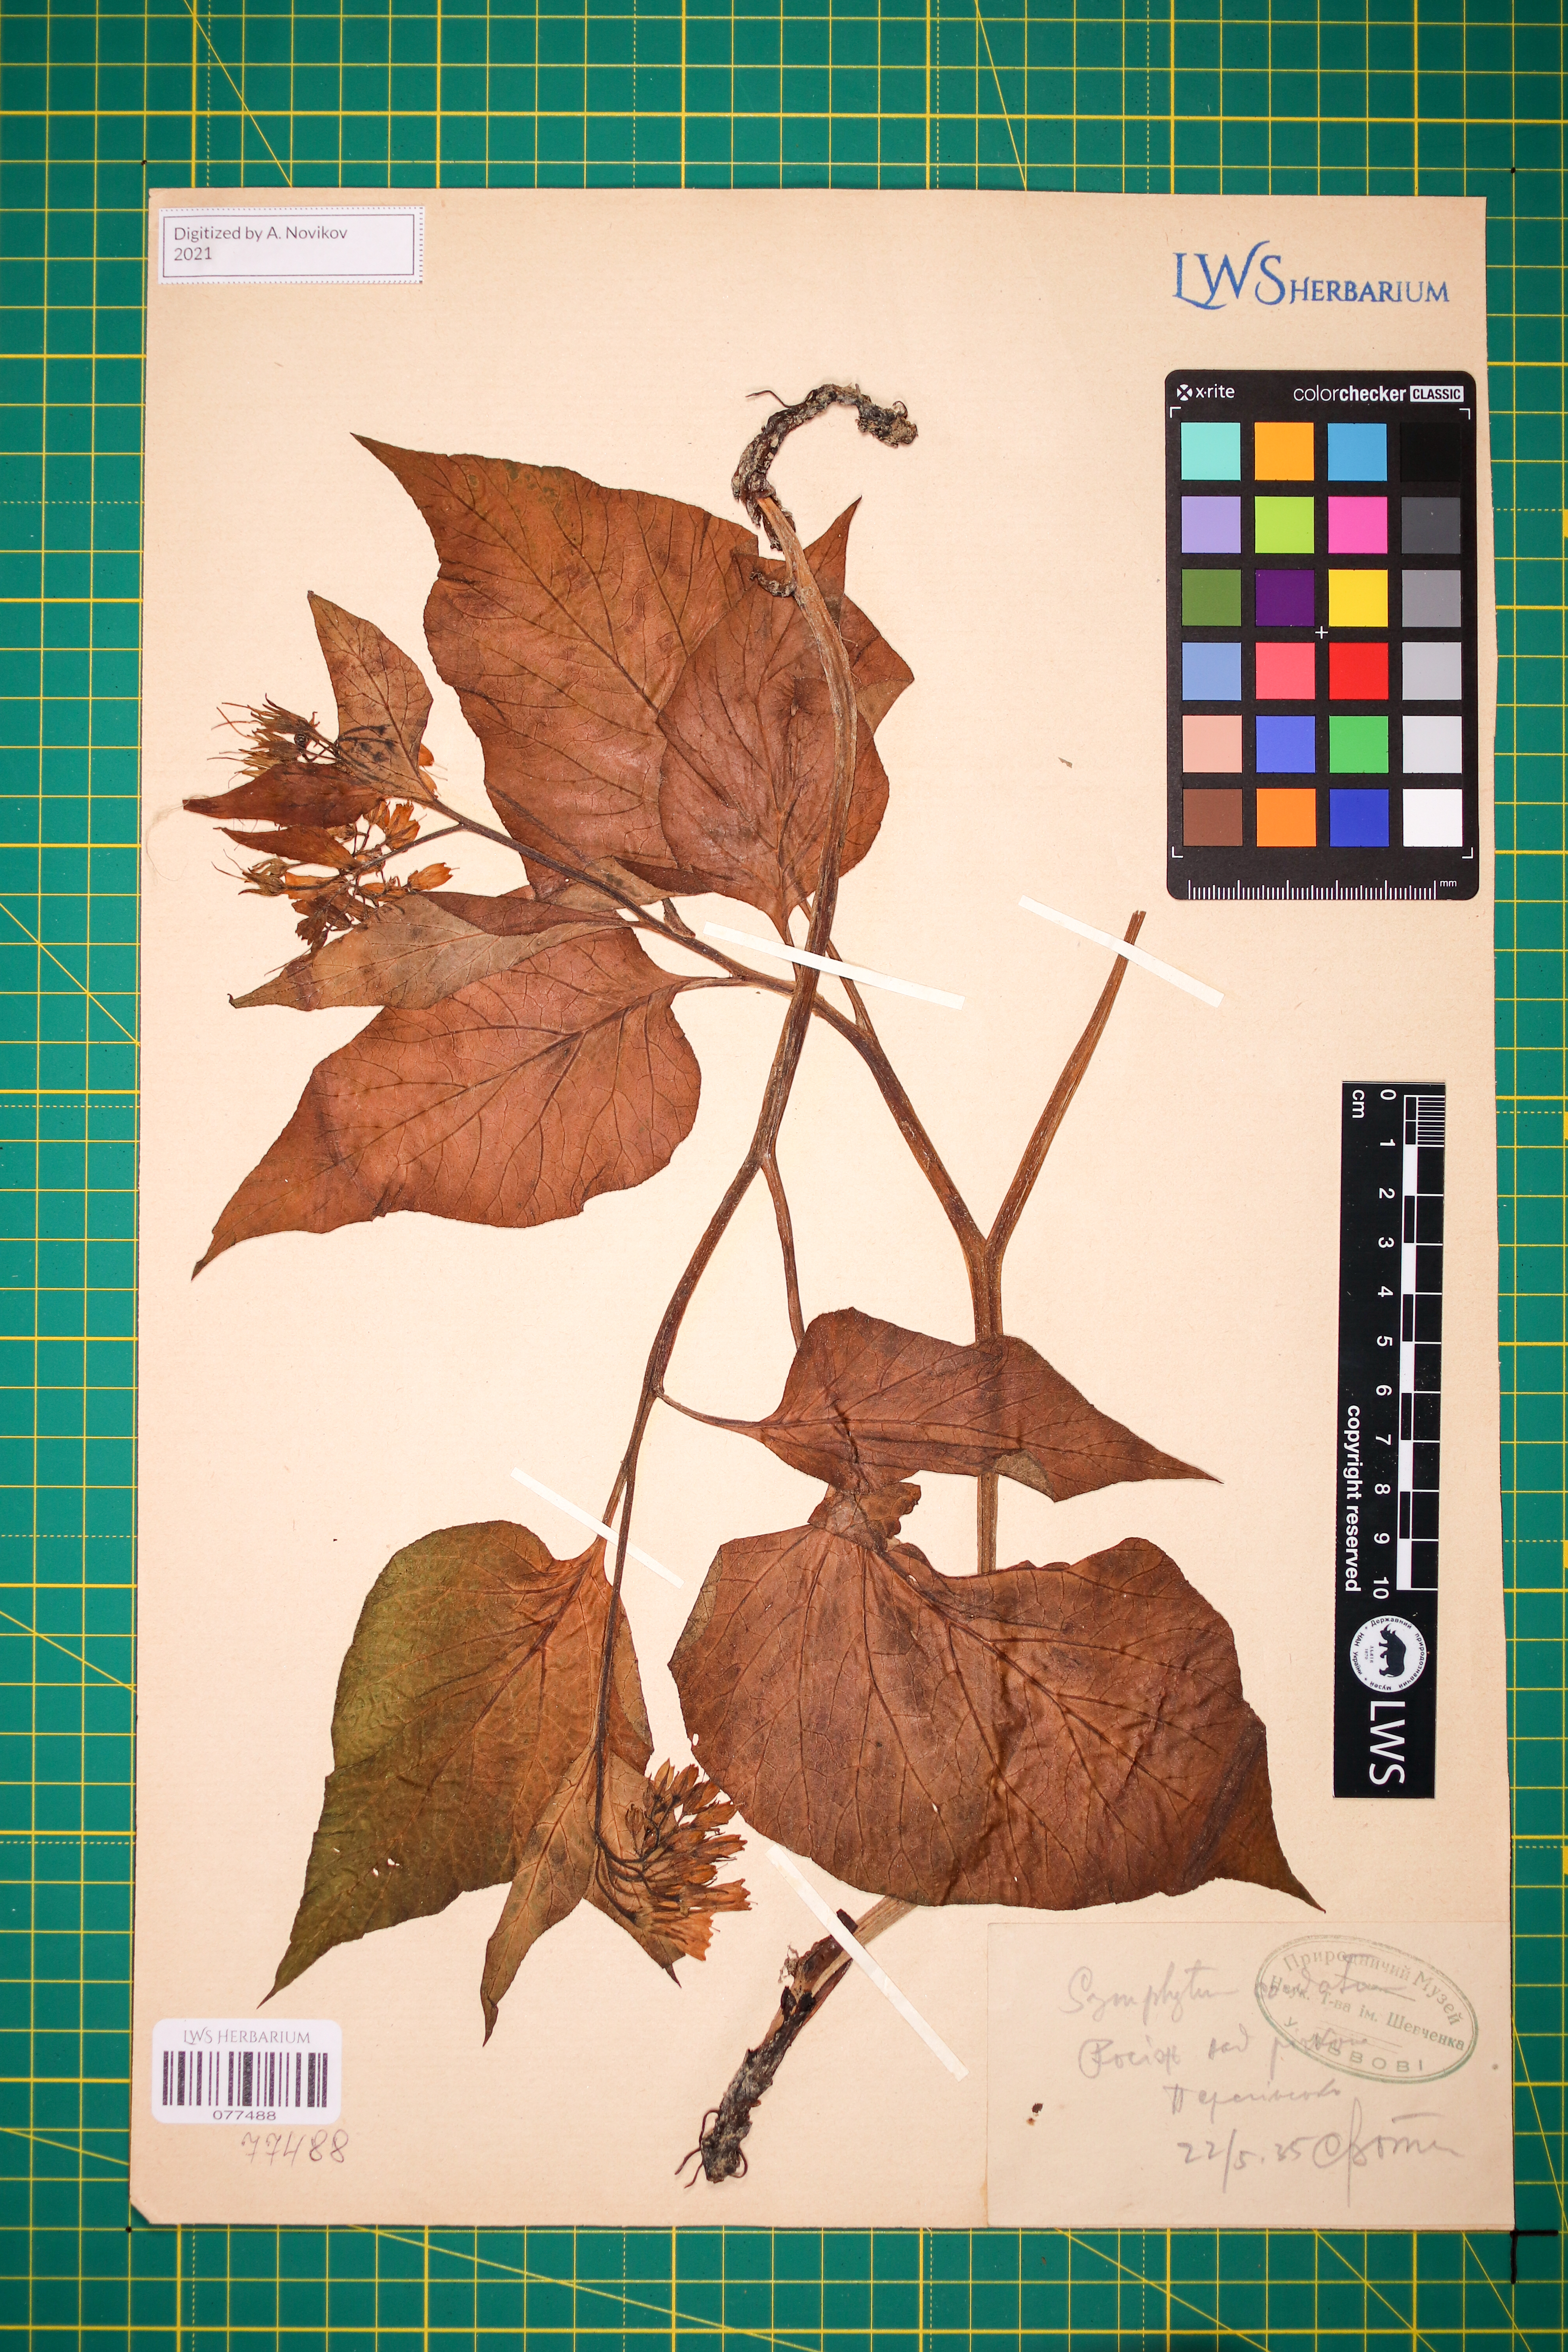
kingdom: Plantae
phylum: Tracheophyta
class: Magnoliopsida
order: Boraginales
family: Boraginaceae
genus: Symphytum
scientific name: Symphytum cordatum
